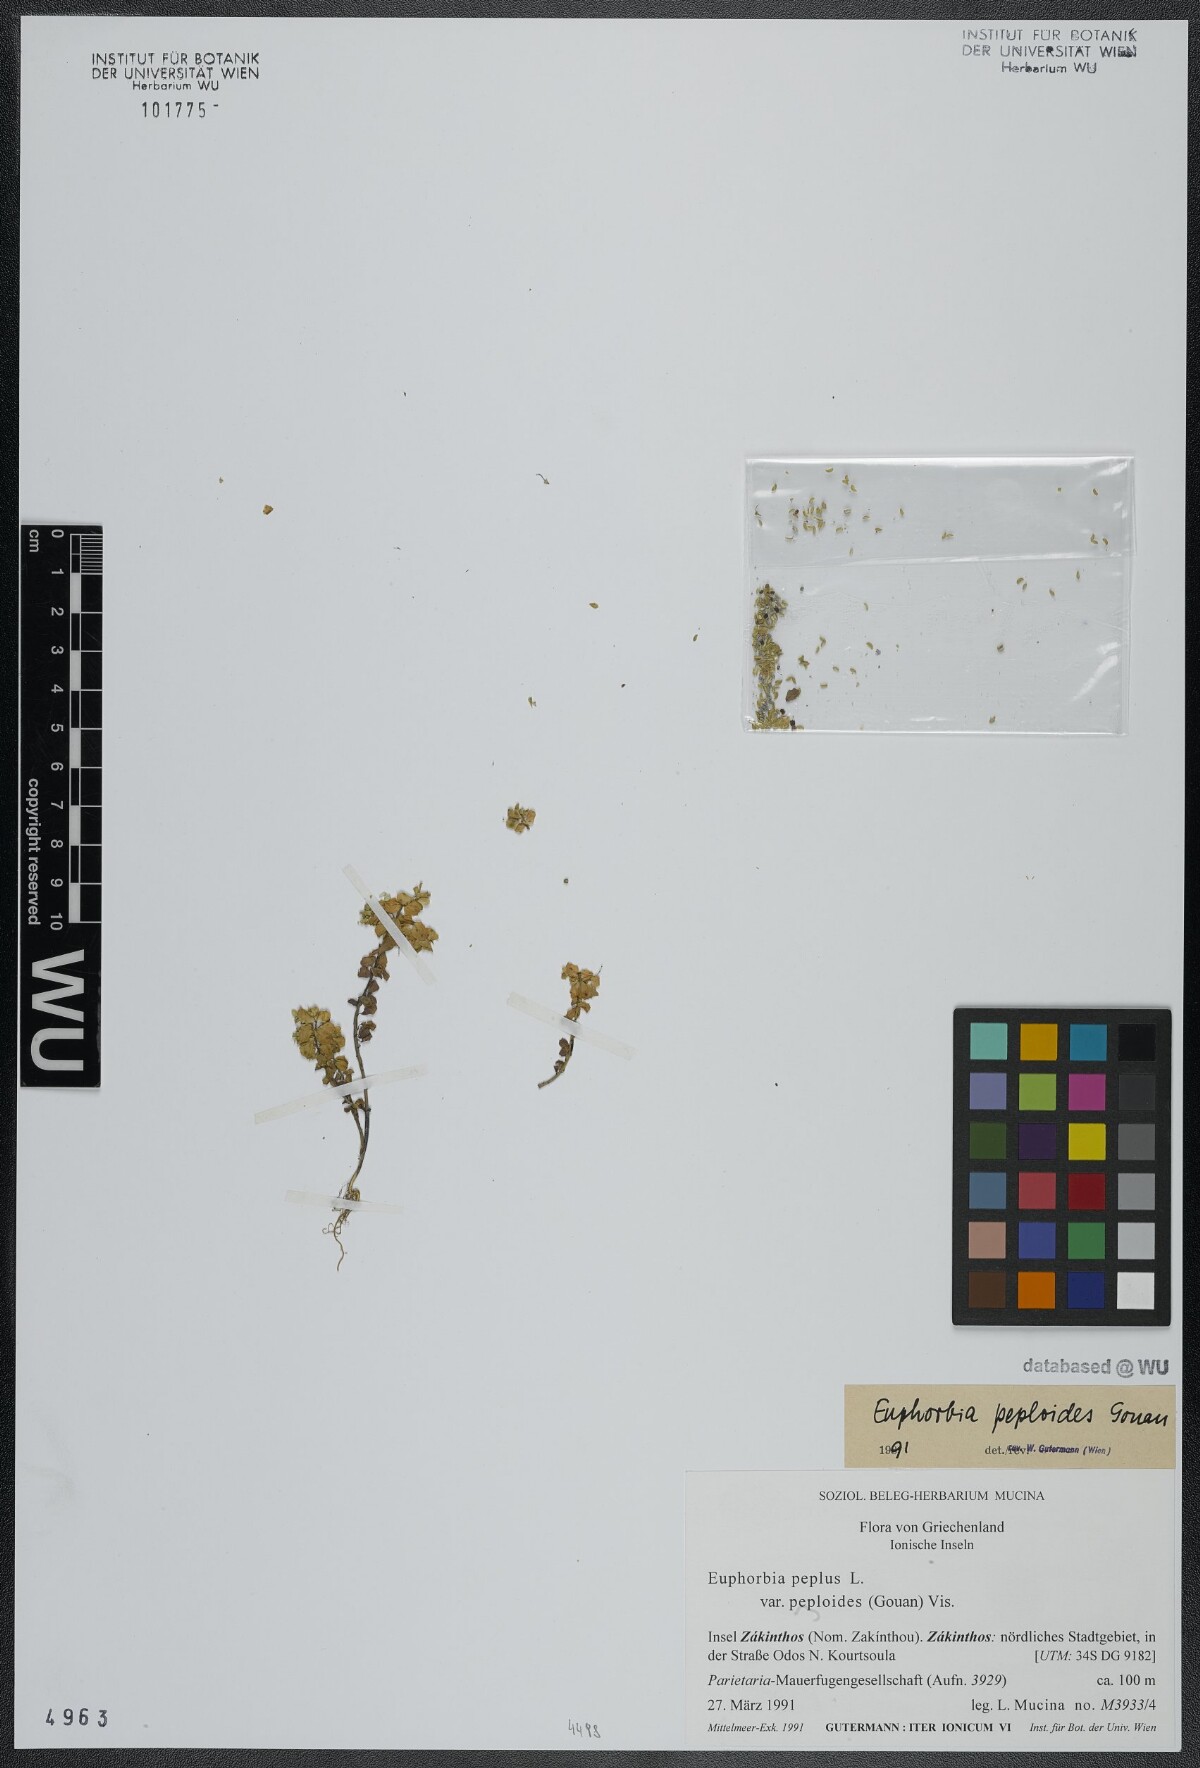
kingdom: Plantae
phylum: Tracheophyta
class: Magnoliopsida
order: Malpighiales
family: Euphorbiaceae
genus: Euphorbia
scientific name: Euphorbia peplus
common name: Petty spurge
